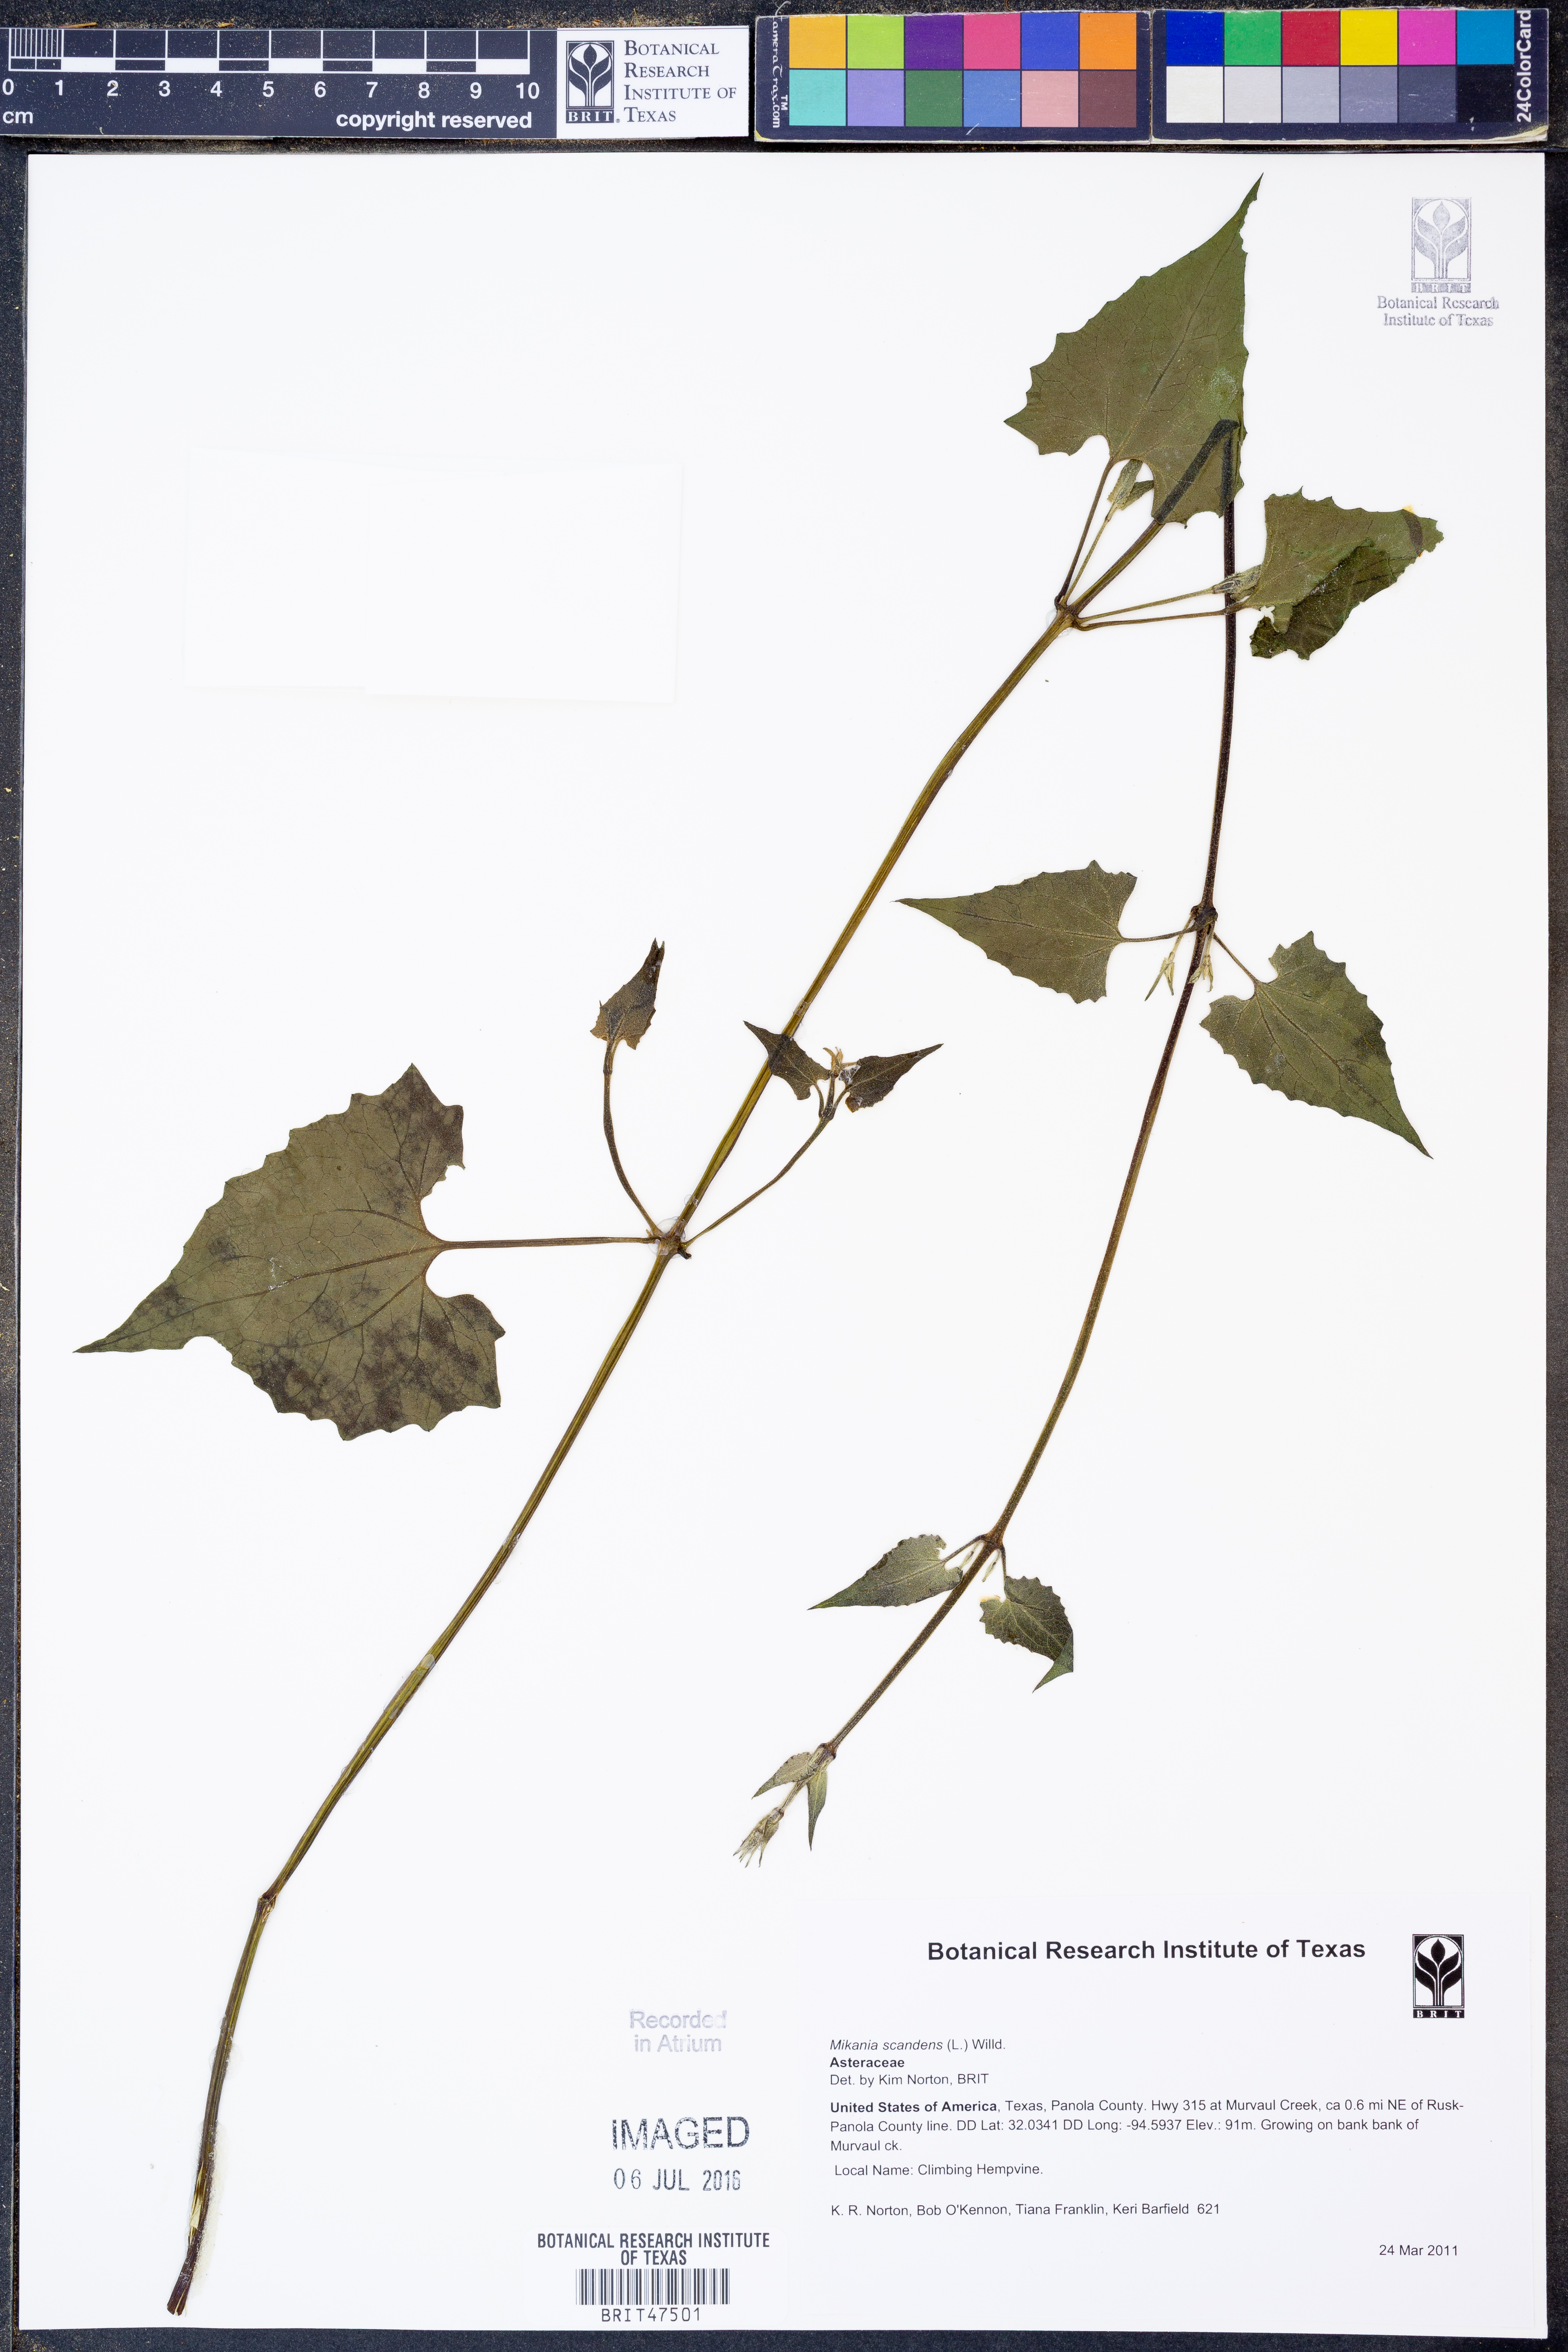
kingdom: Plantae
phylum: Tracheophyta
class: Magnoliopsida
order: Asterales
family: Asteraceae
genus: Mikania
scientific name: Mikania scandens
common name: Climbing hempvine
